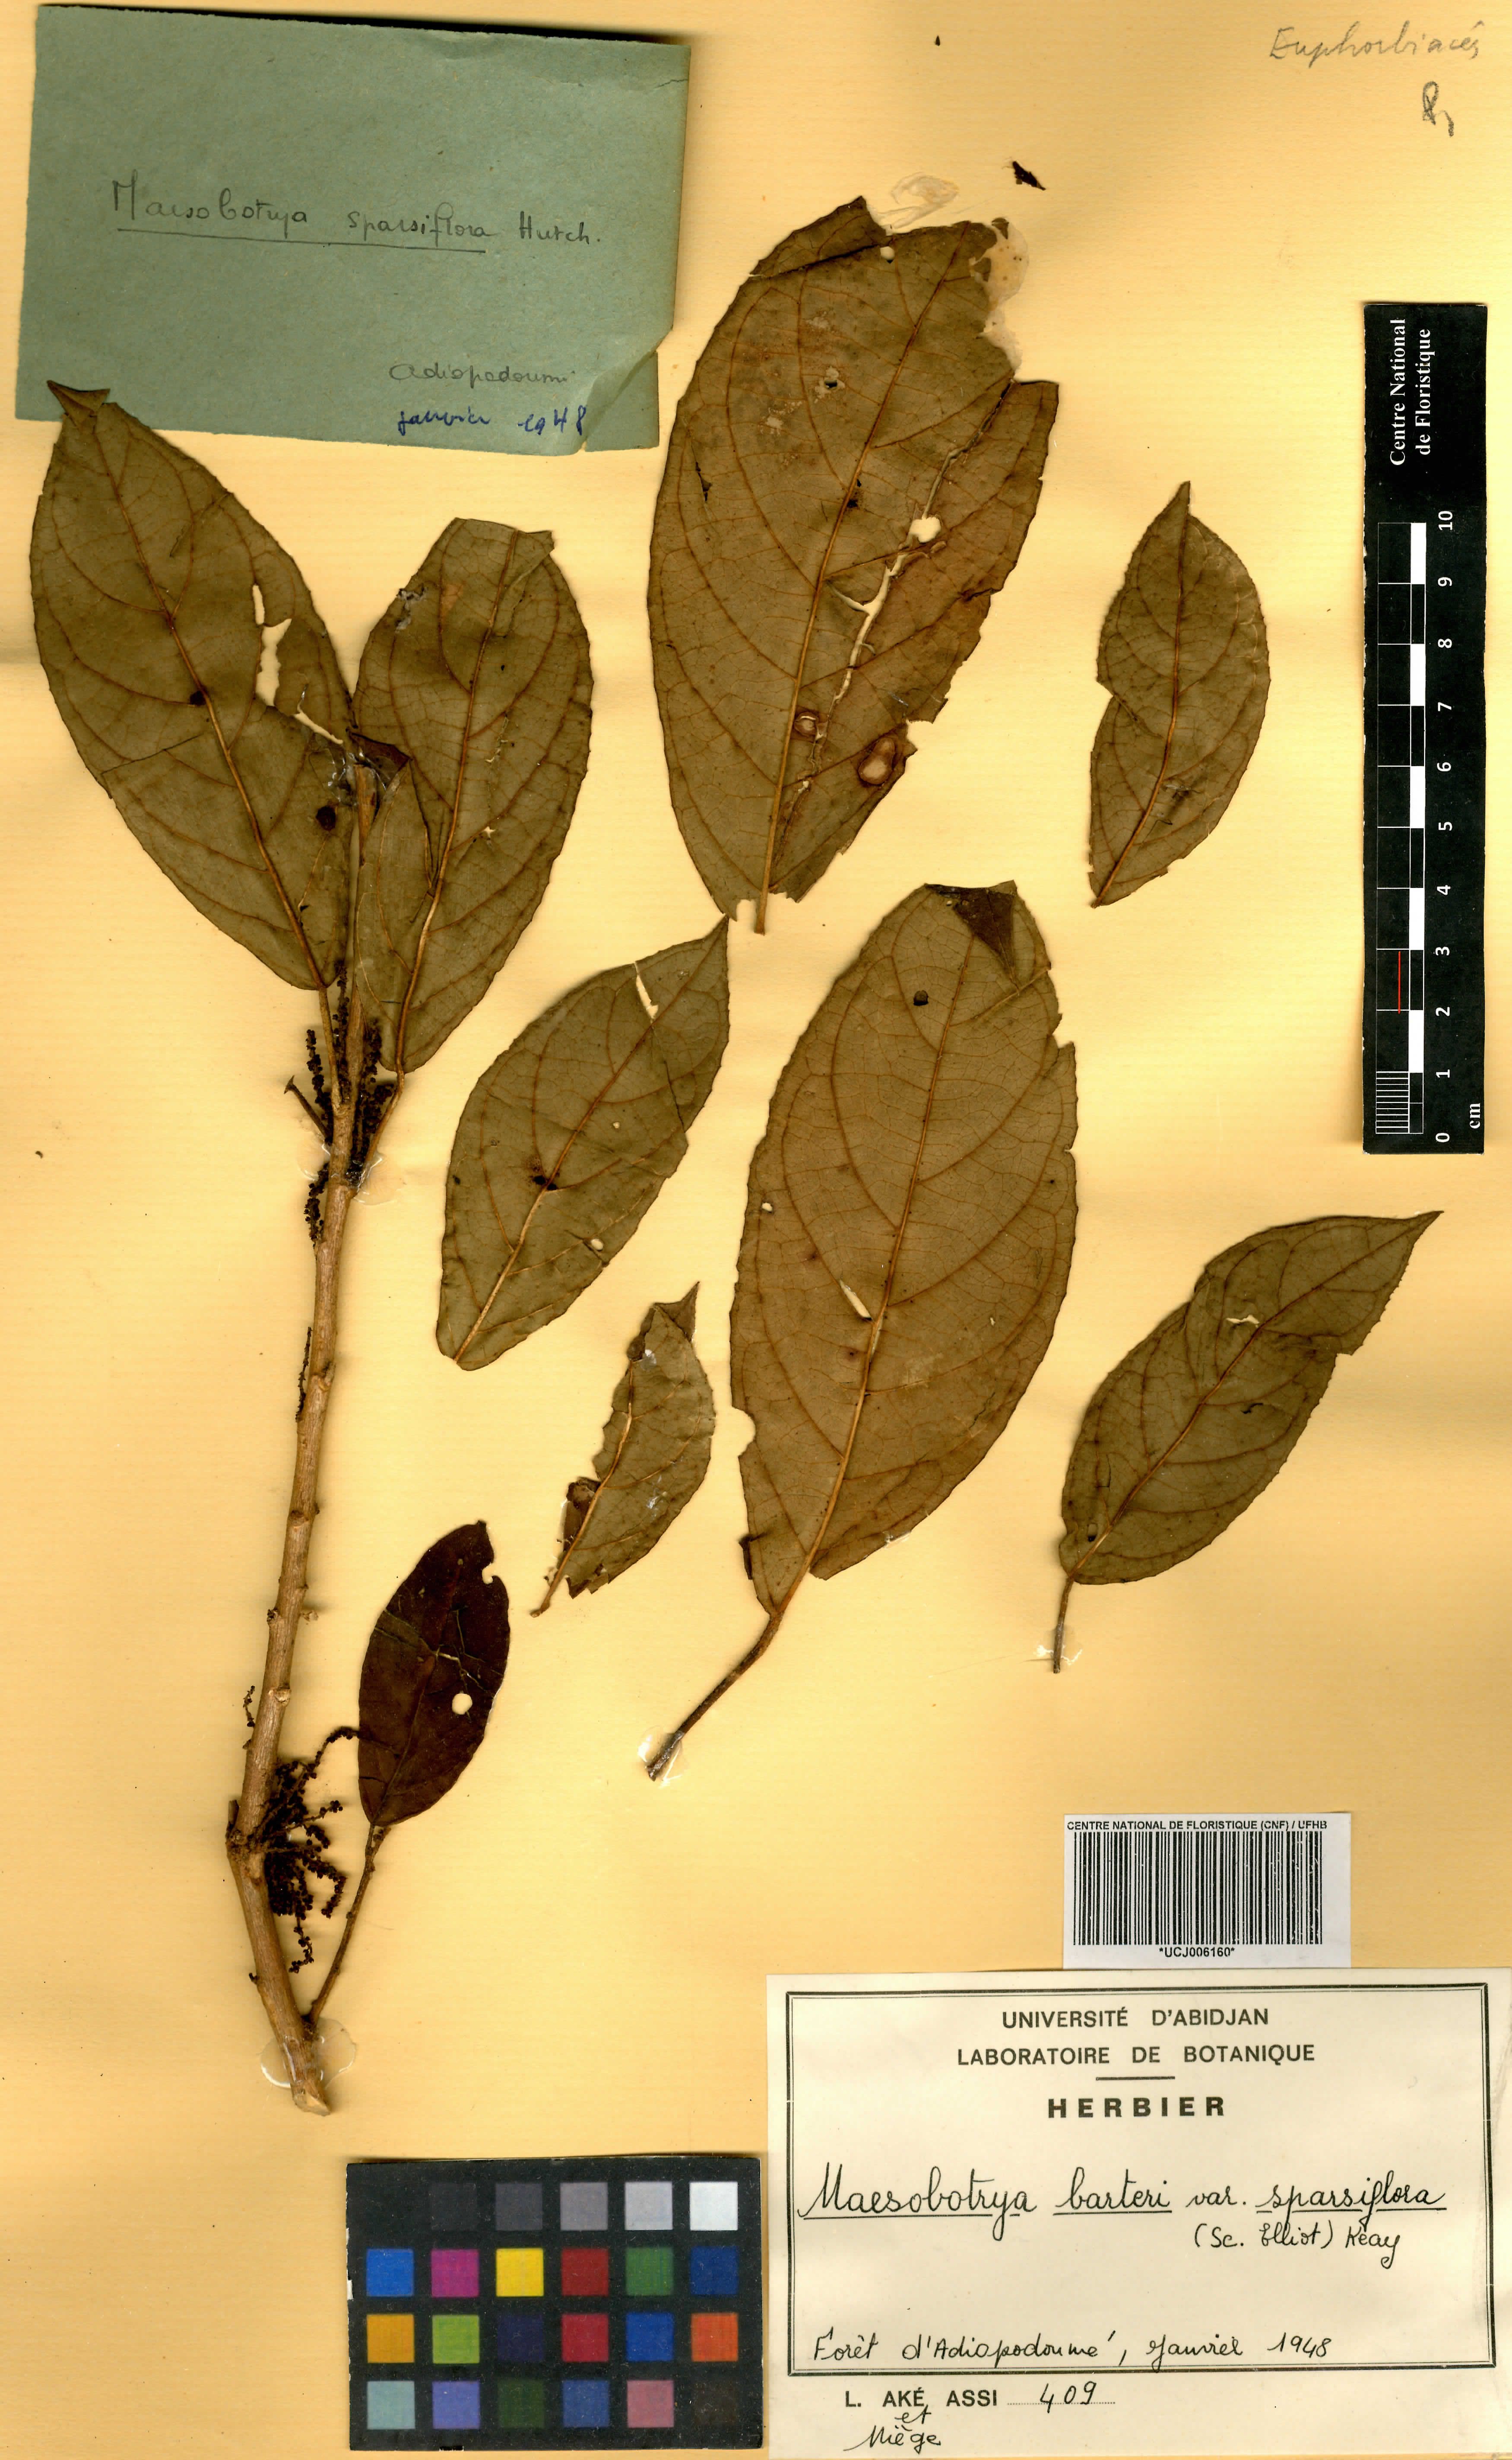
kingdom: Plantae
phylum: Tracheophyta
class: Magnoliopsida
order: Malpighiales
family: Phyllanthaceae
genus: Maesobotrya
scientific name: Maesobotrya barteri
